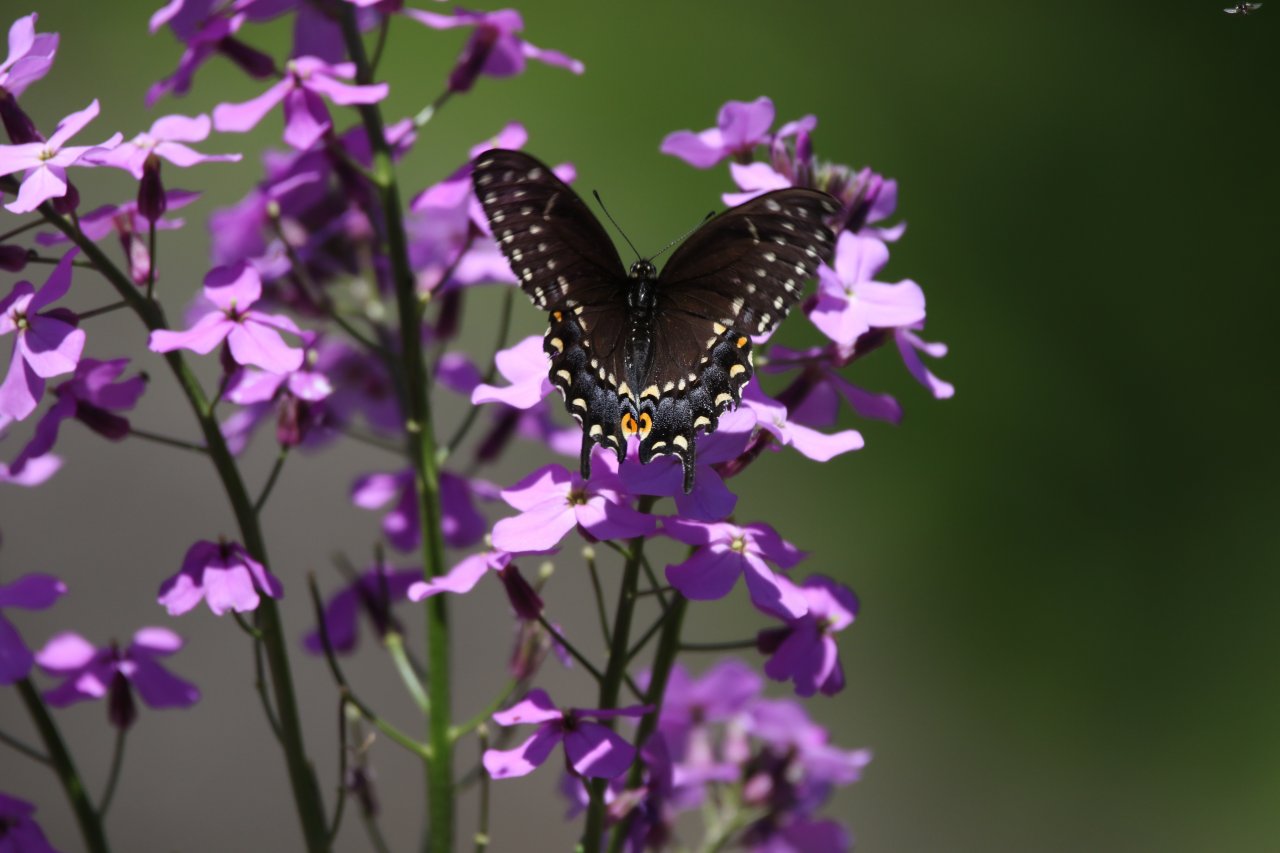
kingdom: Animalia
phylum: Arthropoda
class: Insecta
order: Lepidoptera
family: Papilionidae
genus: Papilio
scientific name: Papilio polyxenes
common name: Black Swallowtail
